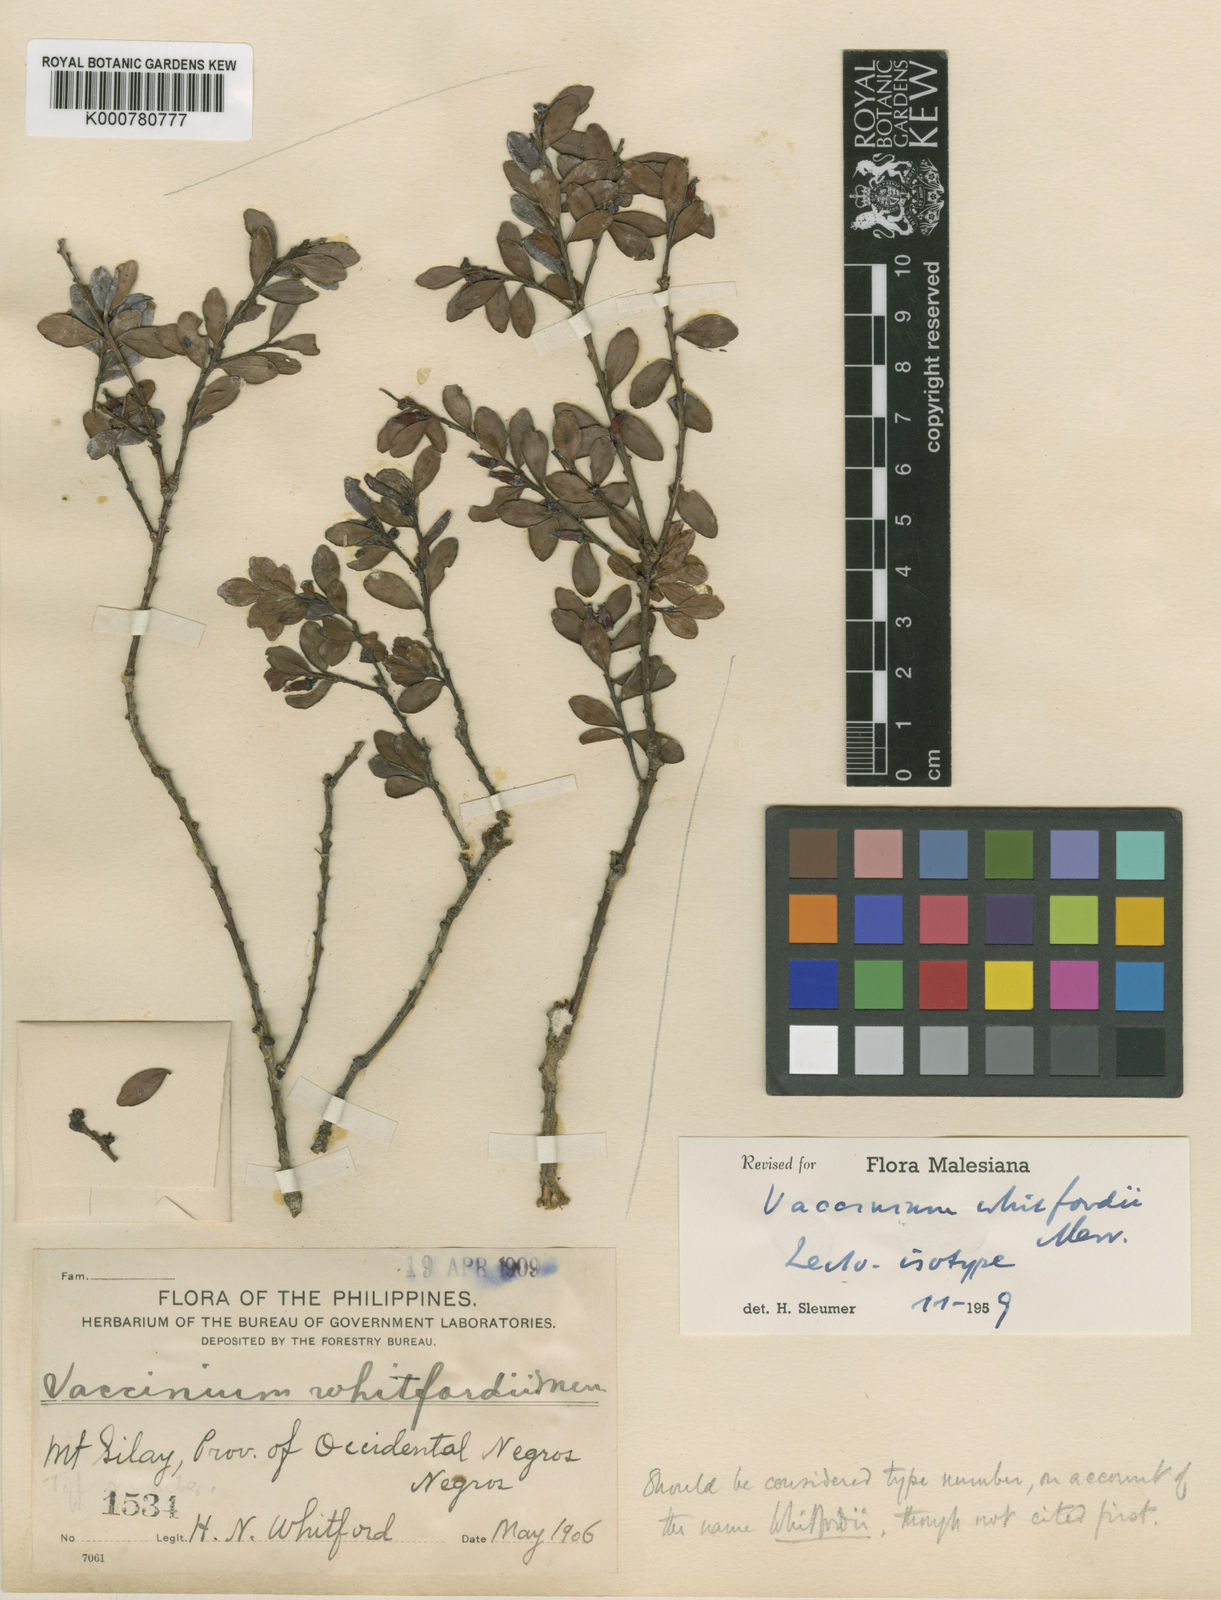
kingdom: Plantae
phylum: Tracheophyta
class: Magnoliopsida
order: Ericales
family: Ericaceae
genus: Vaccinium
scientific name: Vaccinium whitfordii
